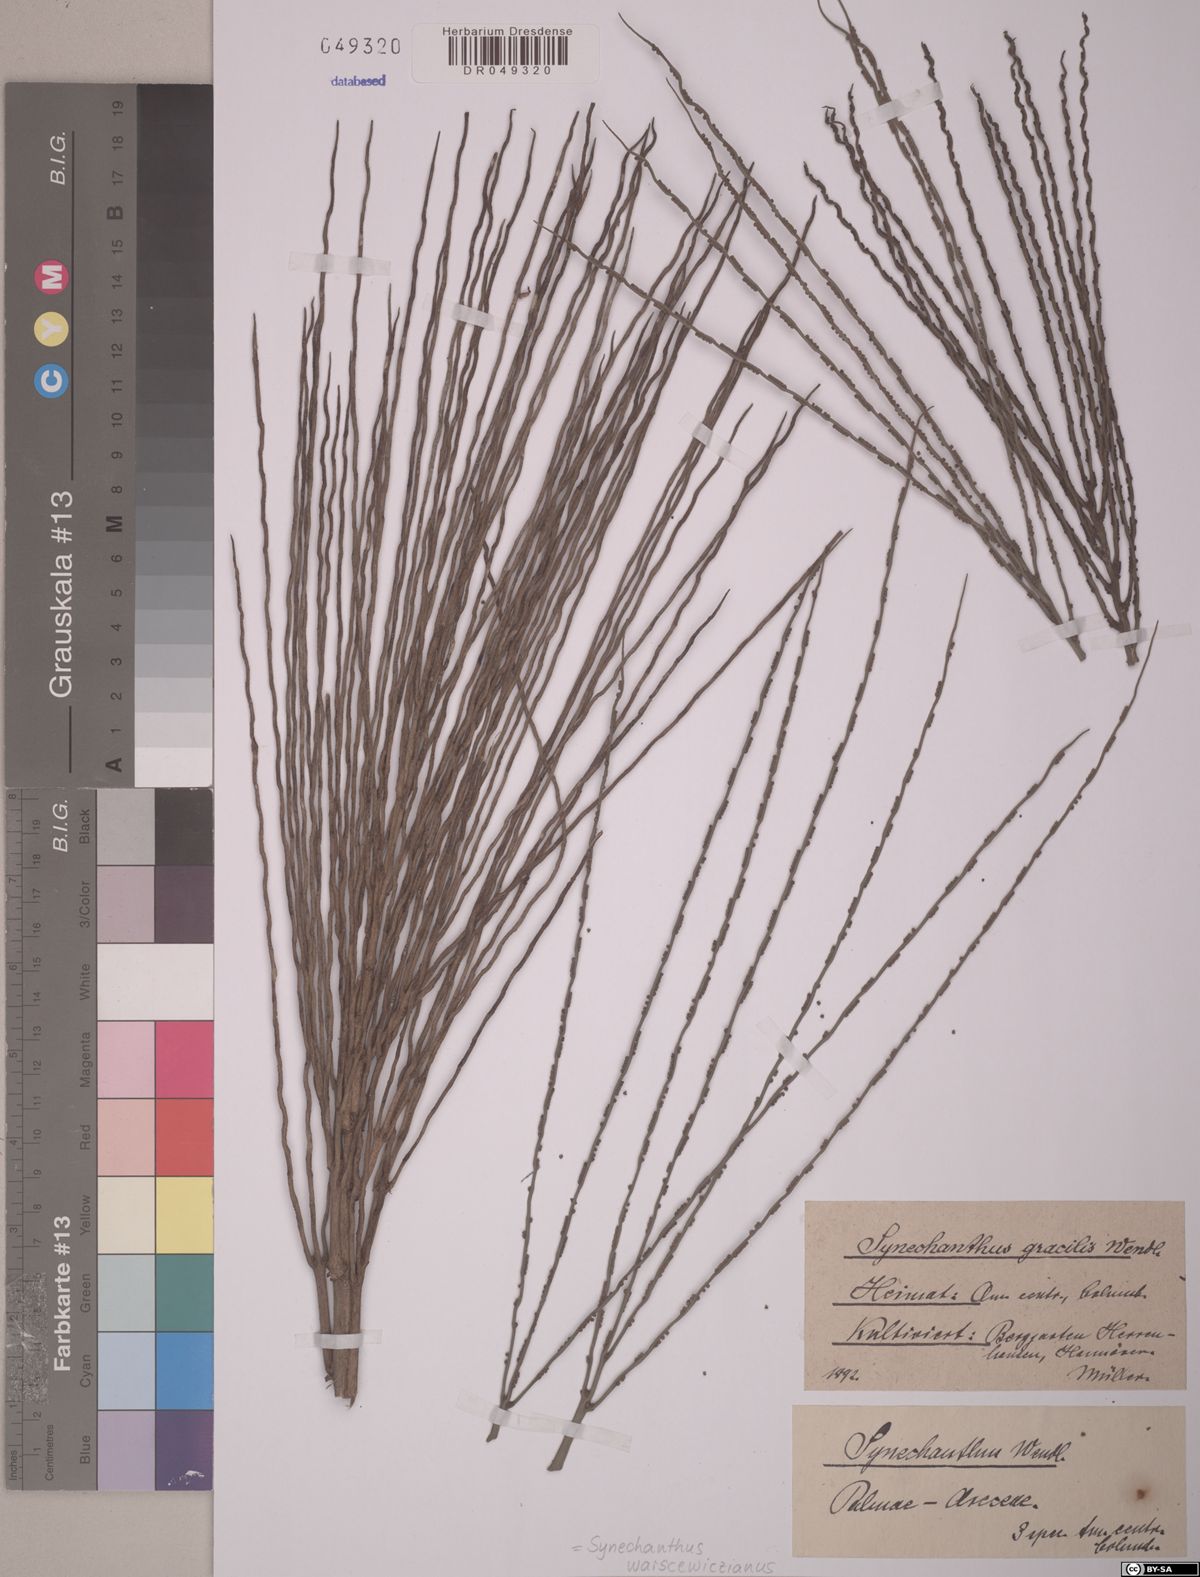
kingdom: Plantae
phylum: Tracheophyta
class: Liliopsida
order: Arecales
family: Arecaceae
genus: Synechanthus
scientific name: Synechanthus warscewiczianus
